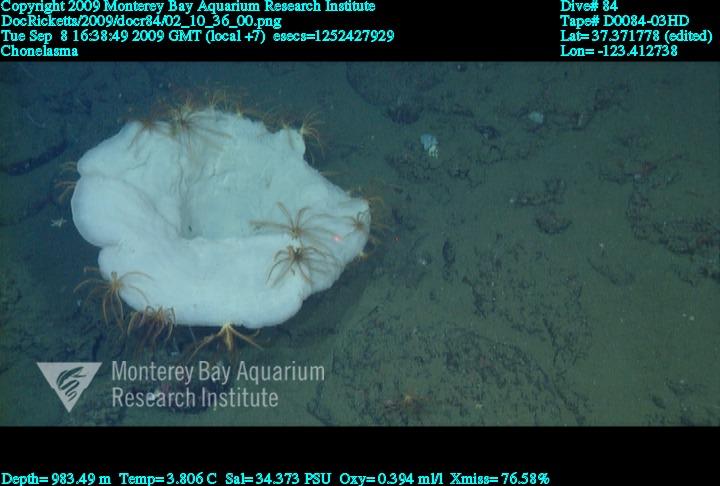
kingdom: Animalia
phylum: Porifera
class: Hexactinellida
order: Sceptrulophora
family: Euretidae
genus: Chonelasma
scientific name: Chonelasma
